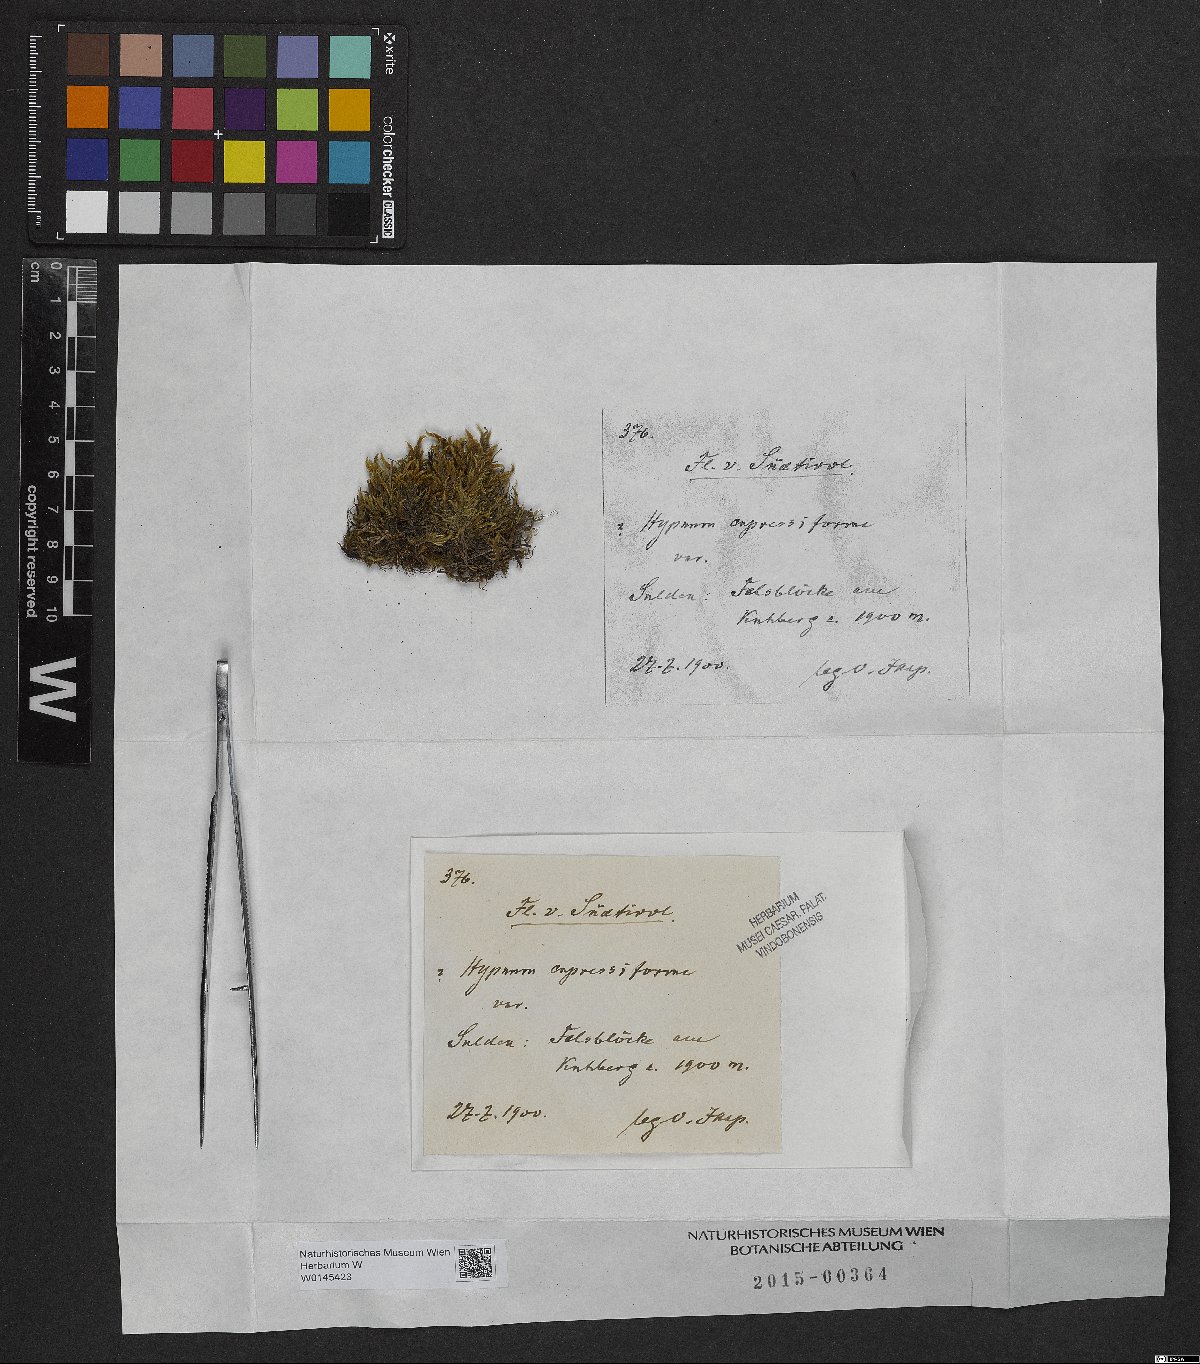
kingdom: Plantae
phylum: Bryophyta
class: Bryopsida
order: Hypnales
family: Hypnaceae
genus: Hypnum
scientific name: Hypnum cupressiforme
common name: Cypress-leaved plait-moss
